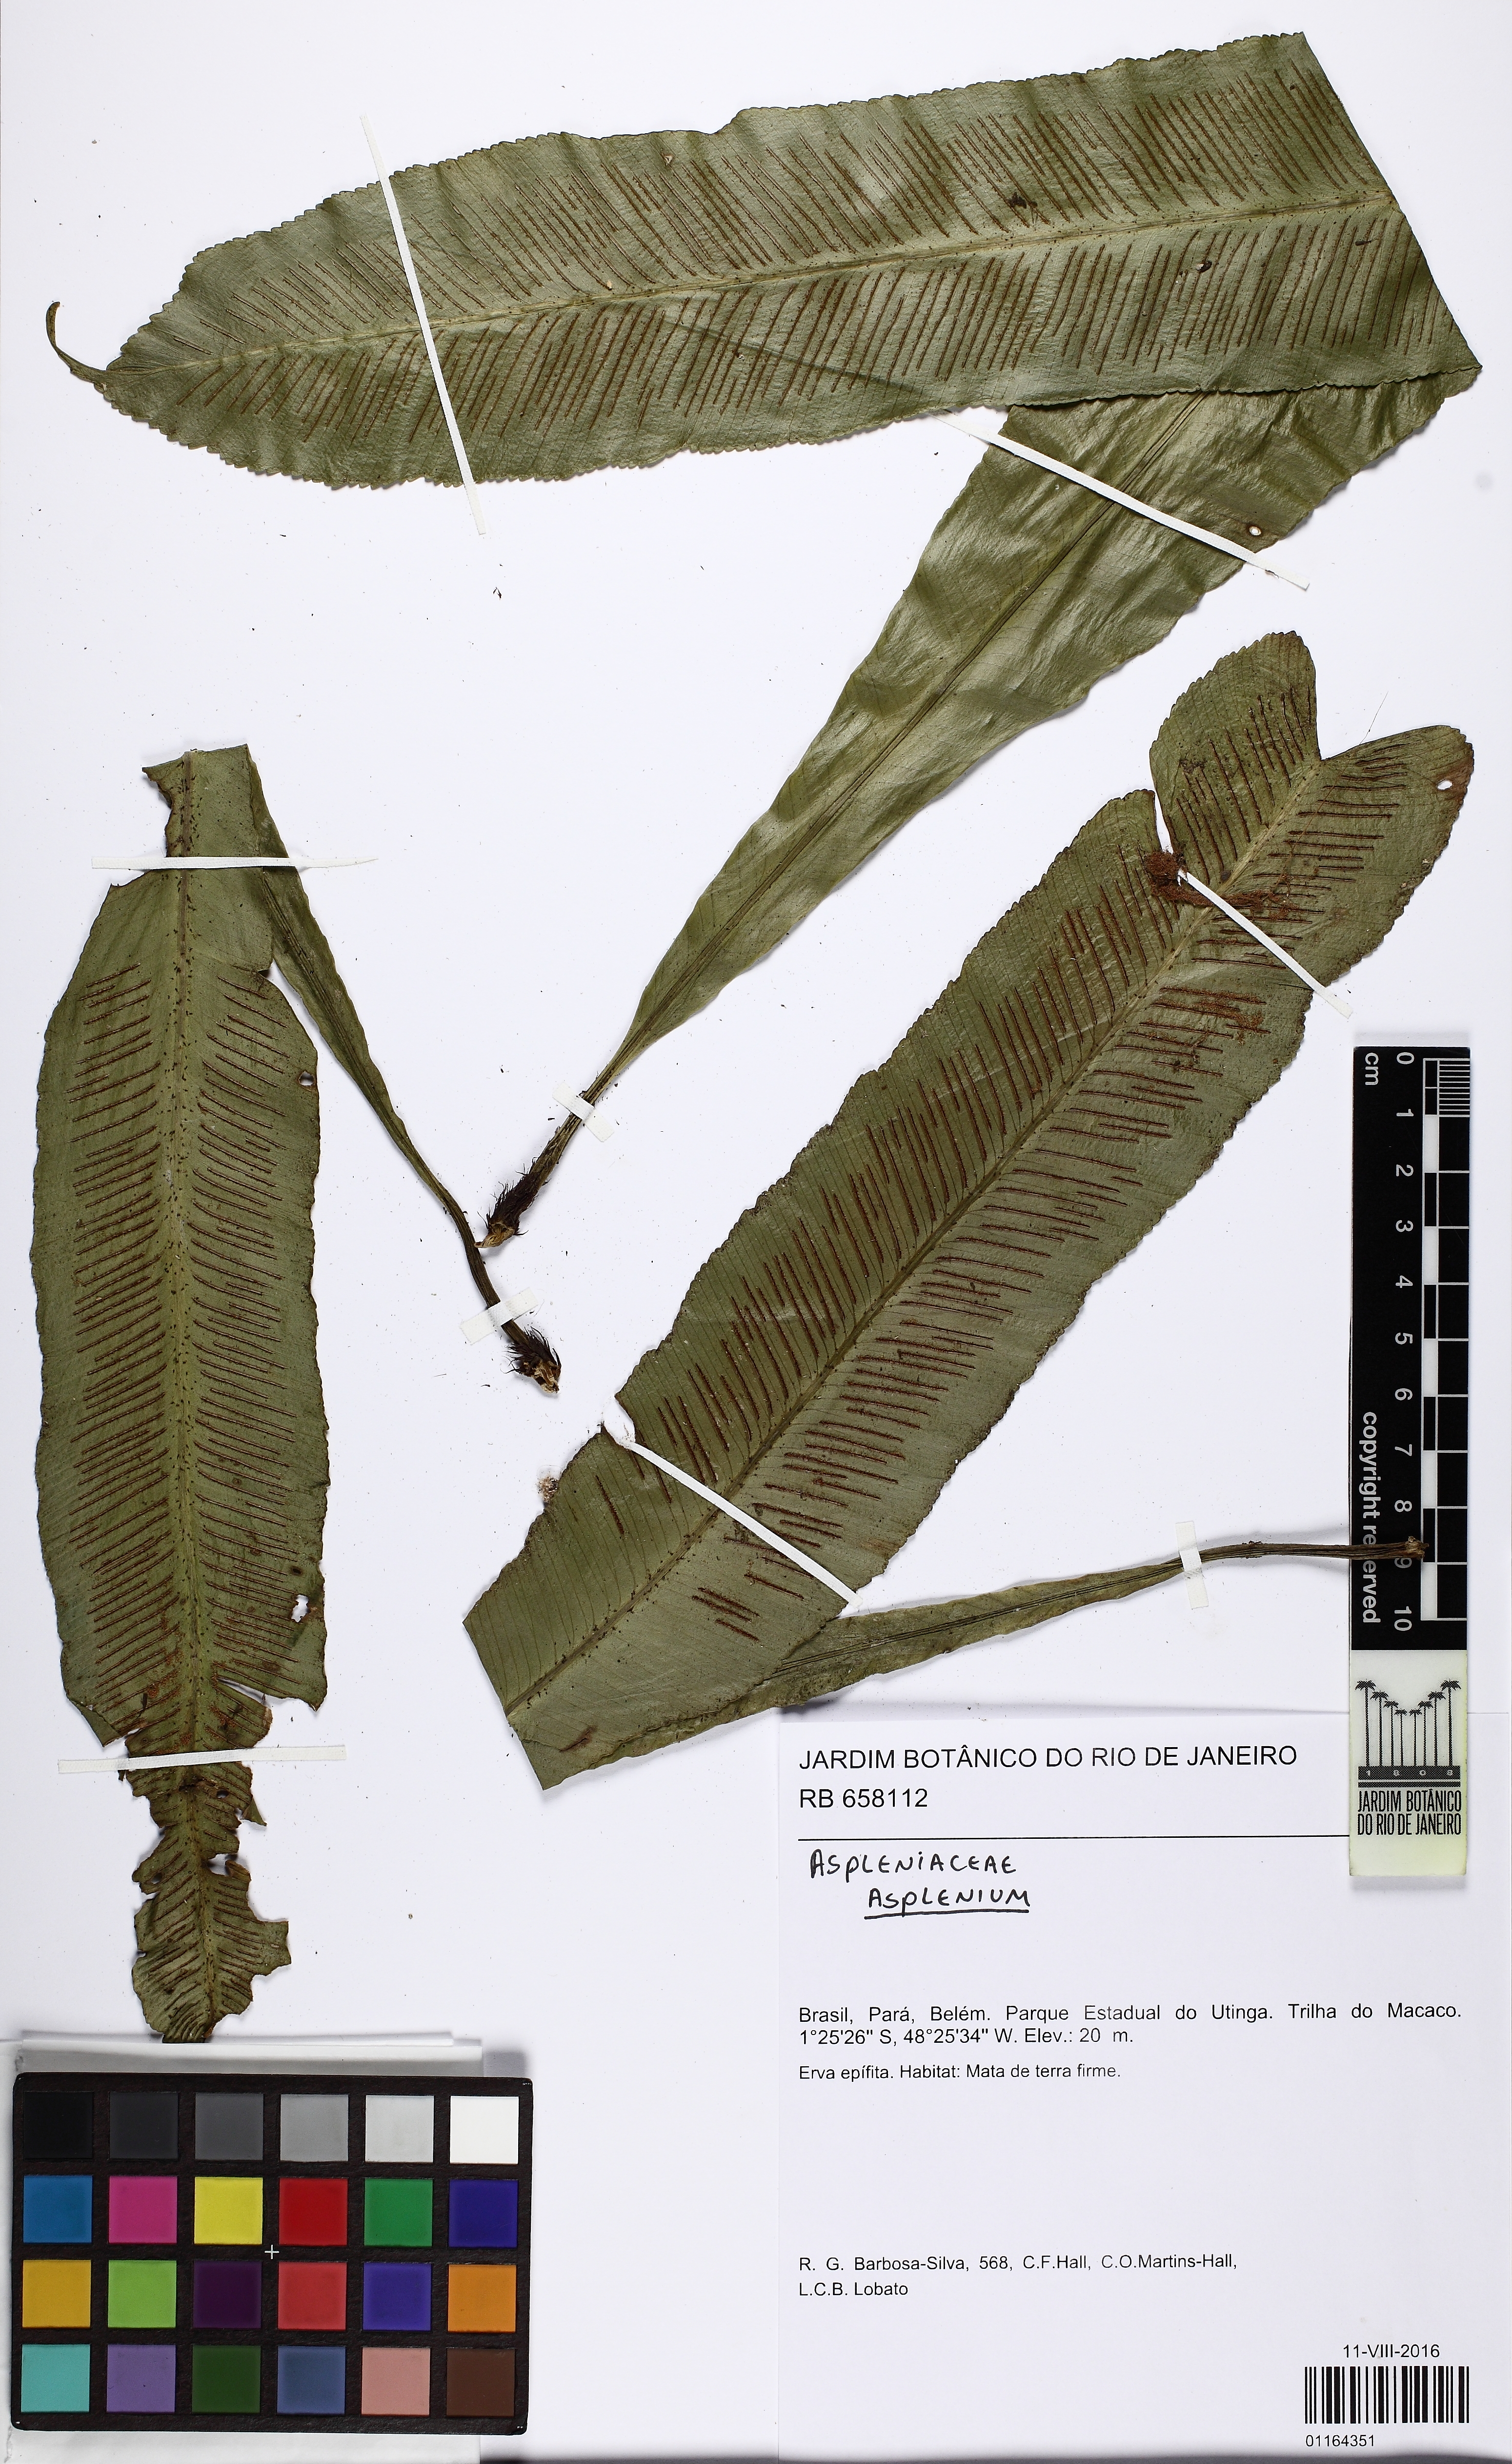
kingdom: Plantae
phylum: Tracheophyta
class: Polypodiopsida
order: Polypodiales
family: Aspleniaceae
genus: Asplenium
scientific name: Asplenium serratum
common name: Wild birdnest fern
